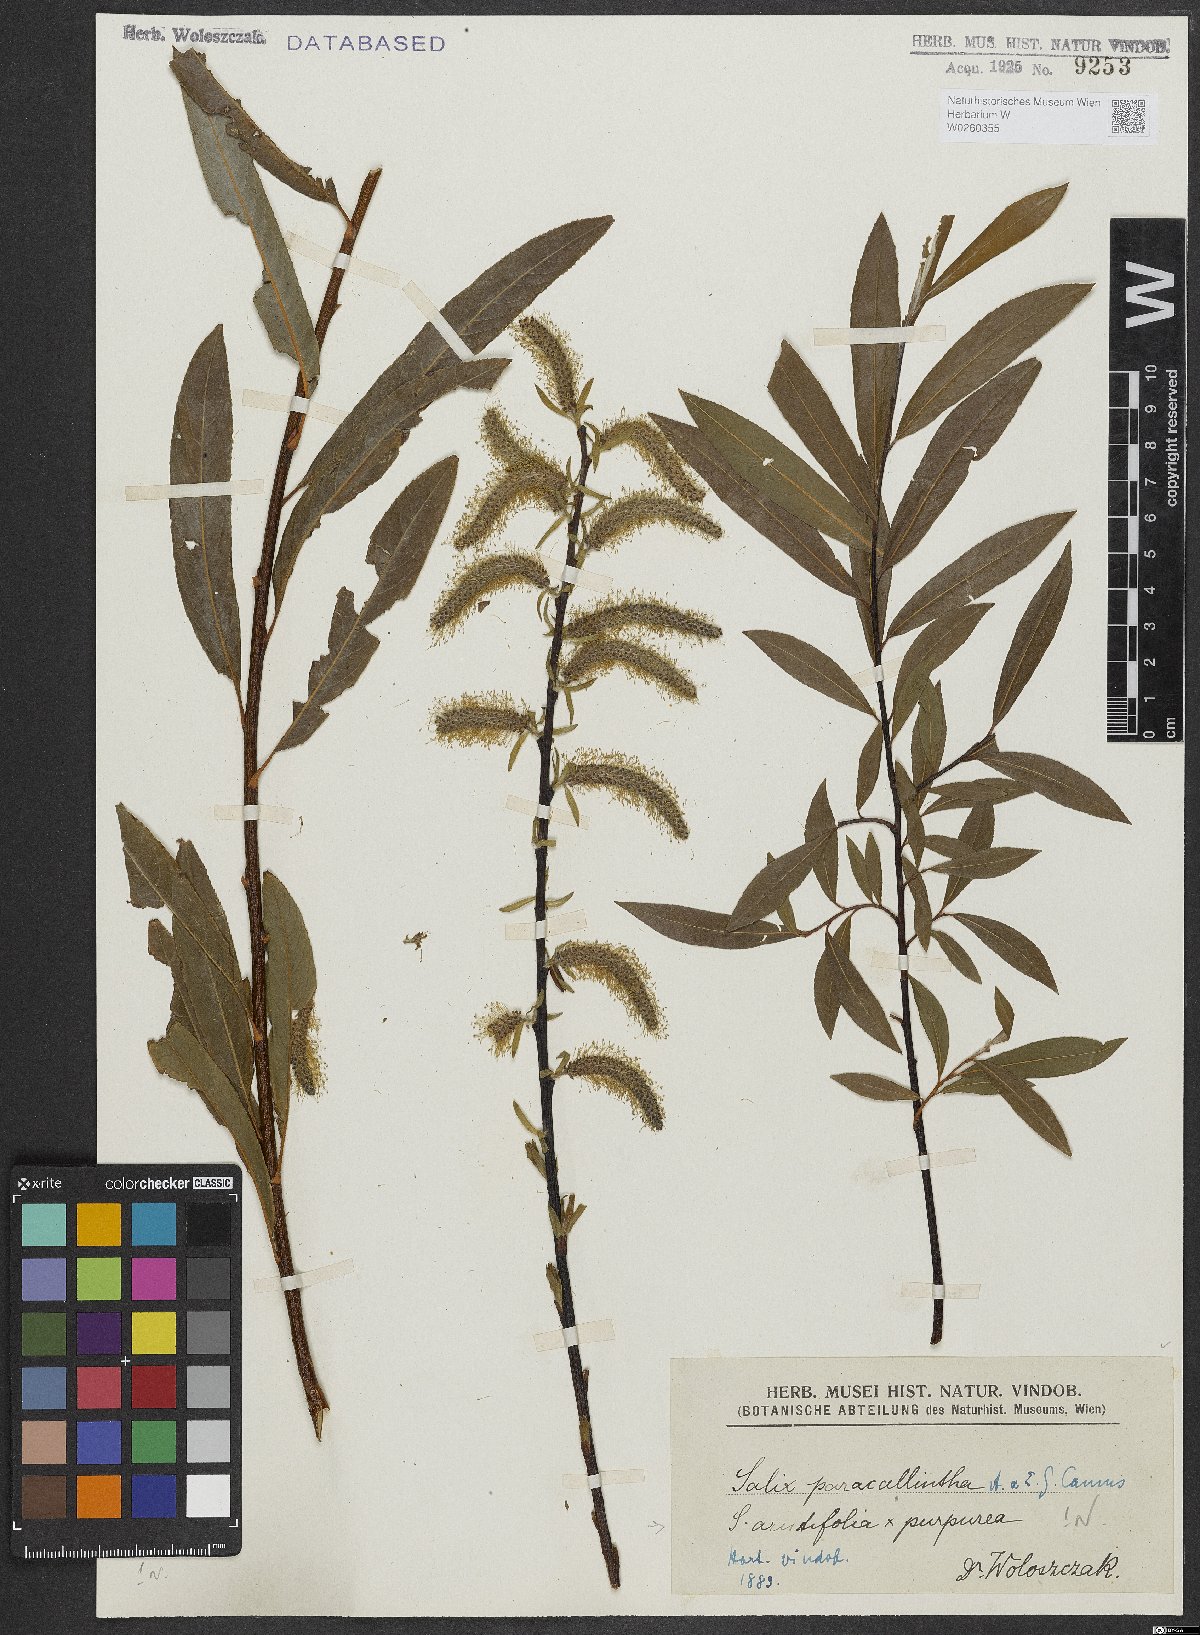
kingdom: Plantae
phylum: Tracheophyta
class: Magnoliopsida
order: Malpighiales
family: Salicaceae
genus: Salix
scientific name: Salix paracalliantha
